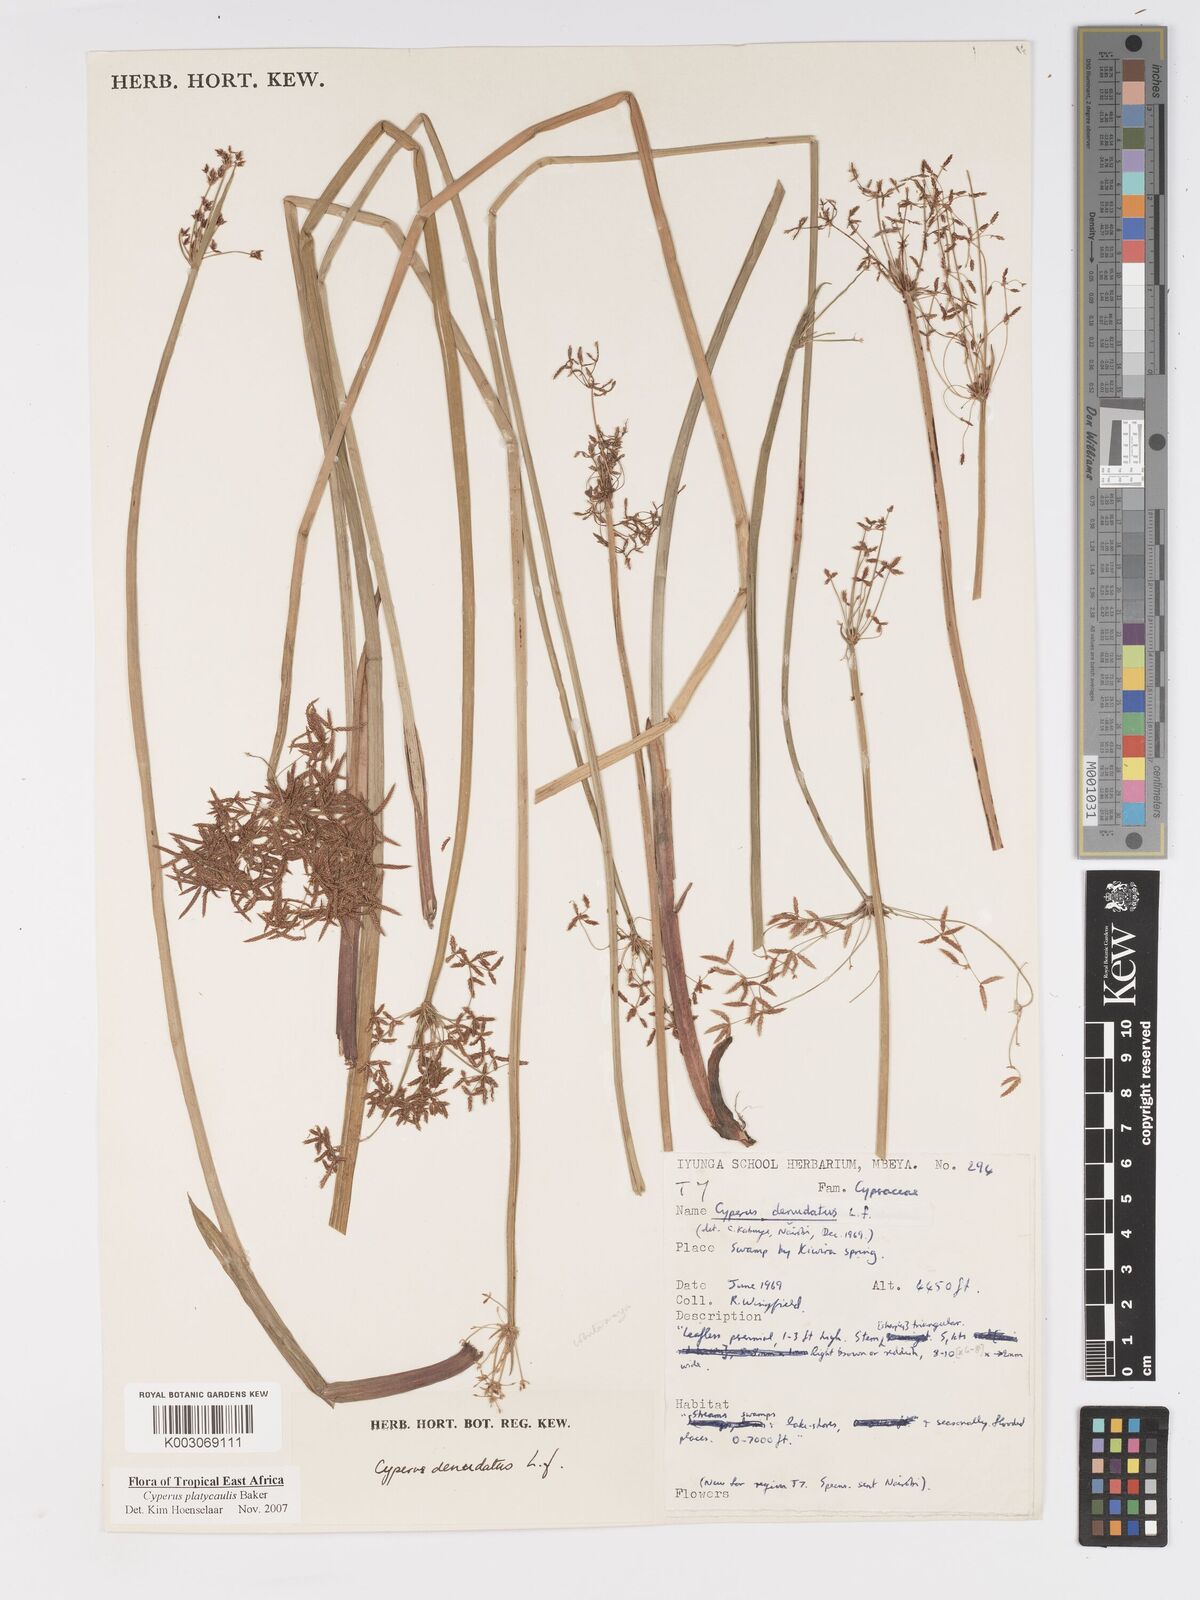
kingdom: Plantae
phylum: Tracheophyta
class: Liliopsida
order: Poales
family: Cyperaceae
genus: Cyperus
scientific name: Cyperus platycaulis
